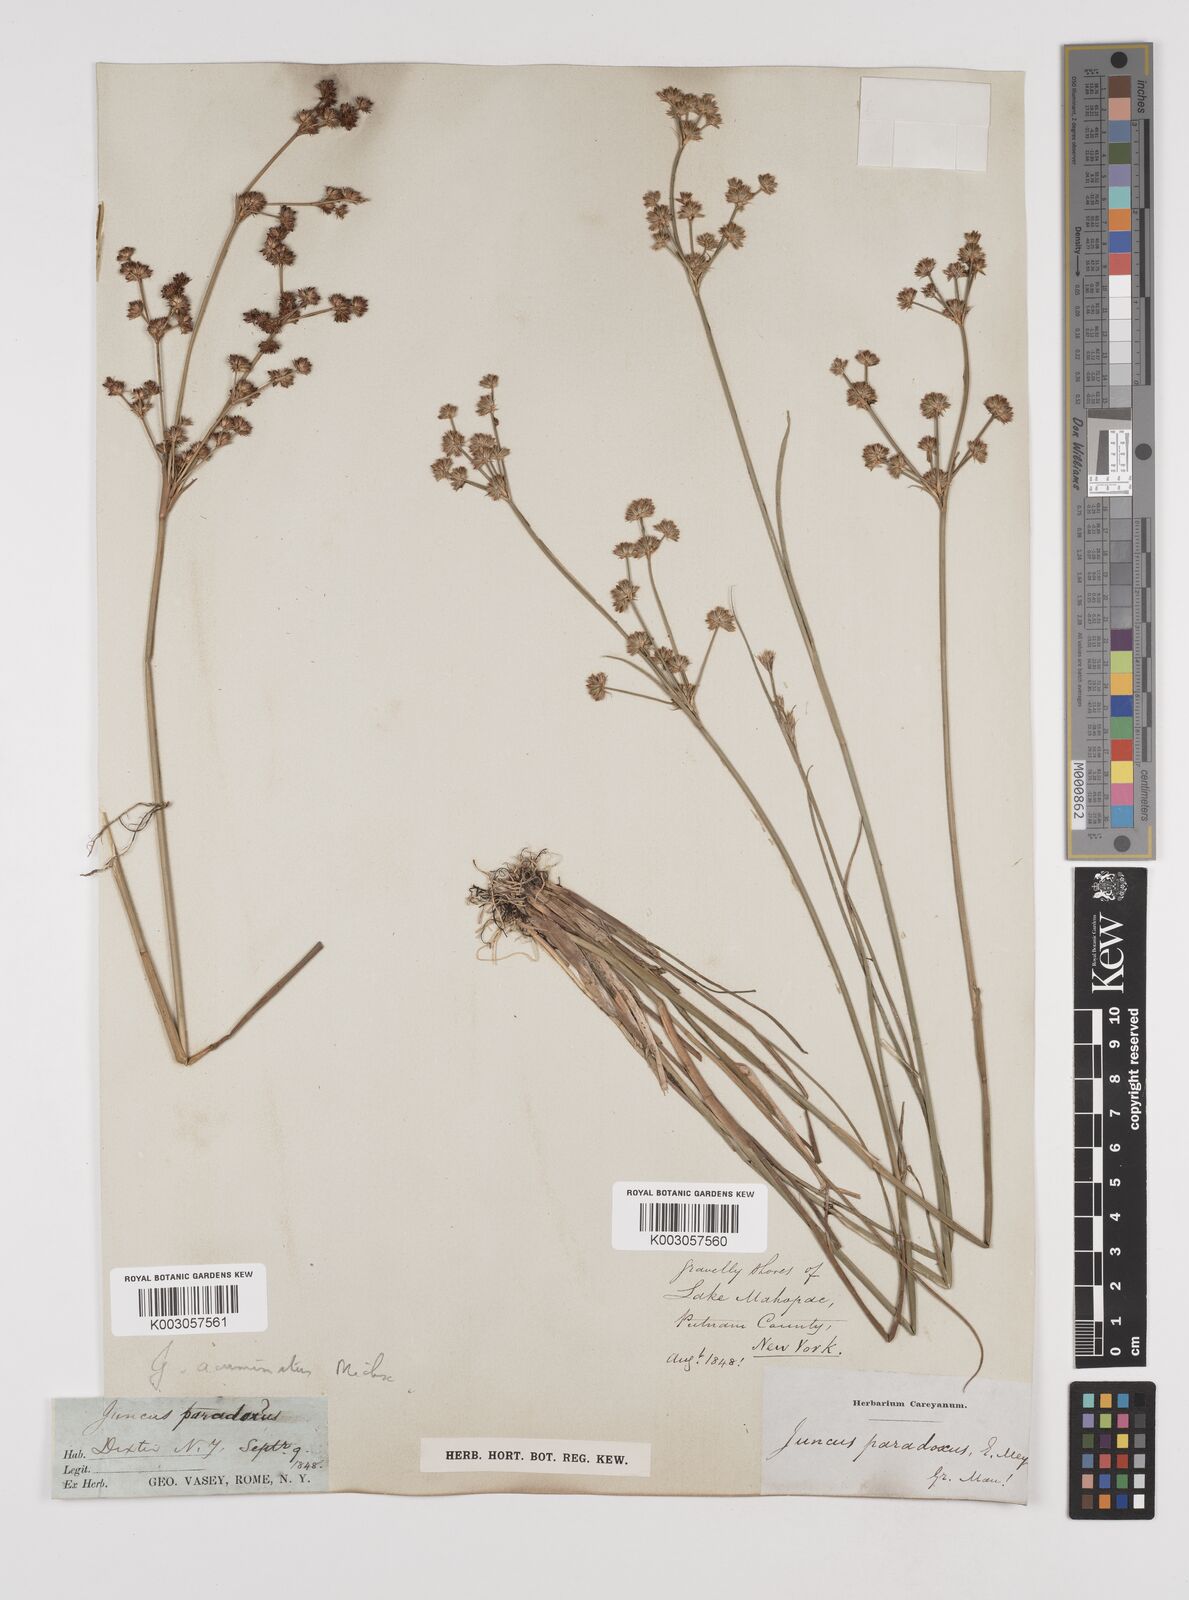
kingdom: Plantae
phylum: Tracheophyta
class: Liliopsida
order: Poales
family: Juncaceae
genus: Juncus
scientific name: Juncus acuminatus
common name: Knotty-leaved rush
